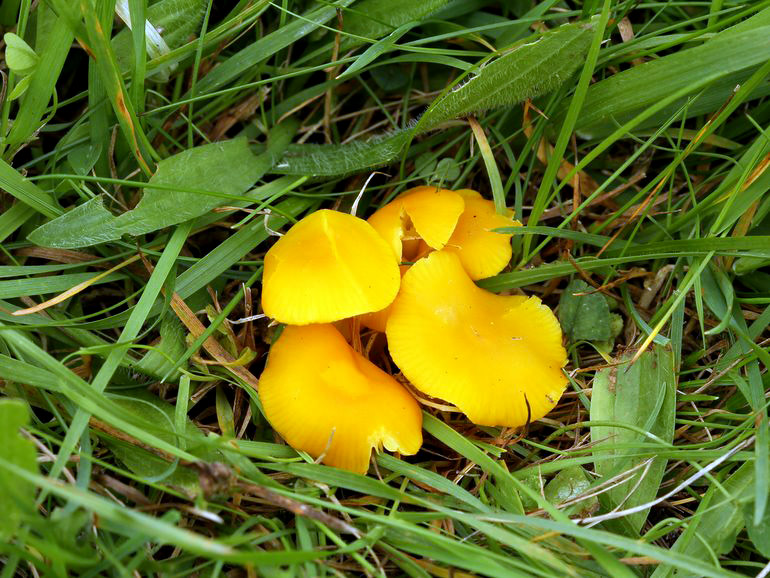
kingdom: Fungi
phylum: Basidiomycota
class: Agaricomycetes
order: Agaricales
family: Hygrophoraceae
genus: Hygrocybe
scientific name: Hygrocybe ceracea
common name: voksgul vokshat
